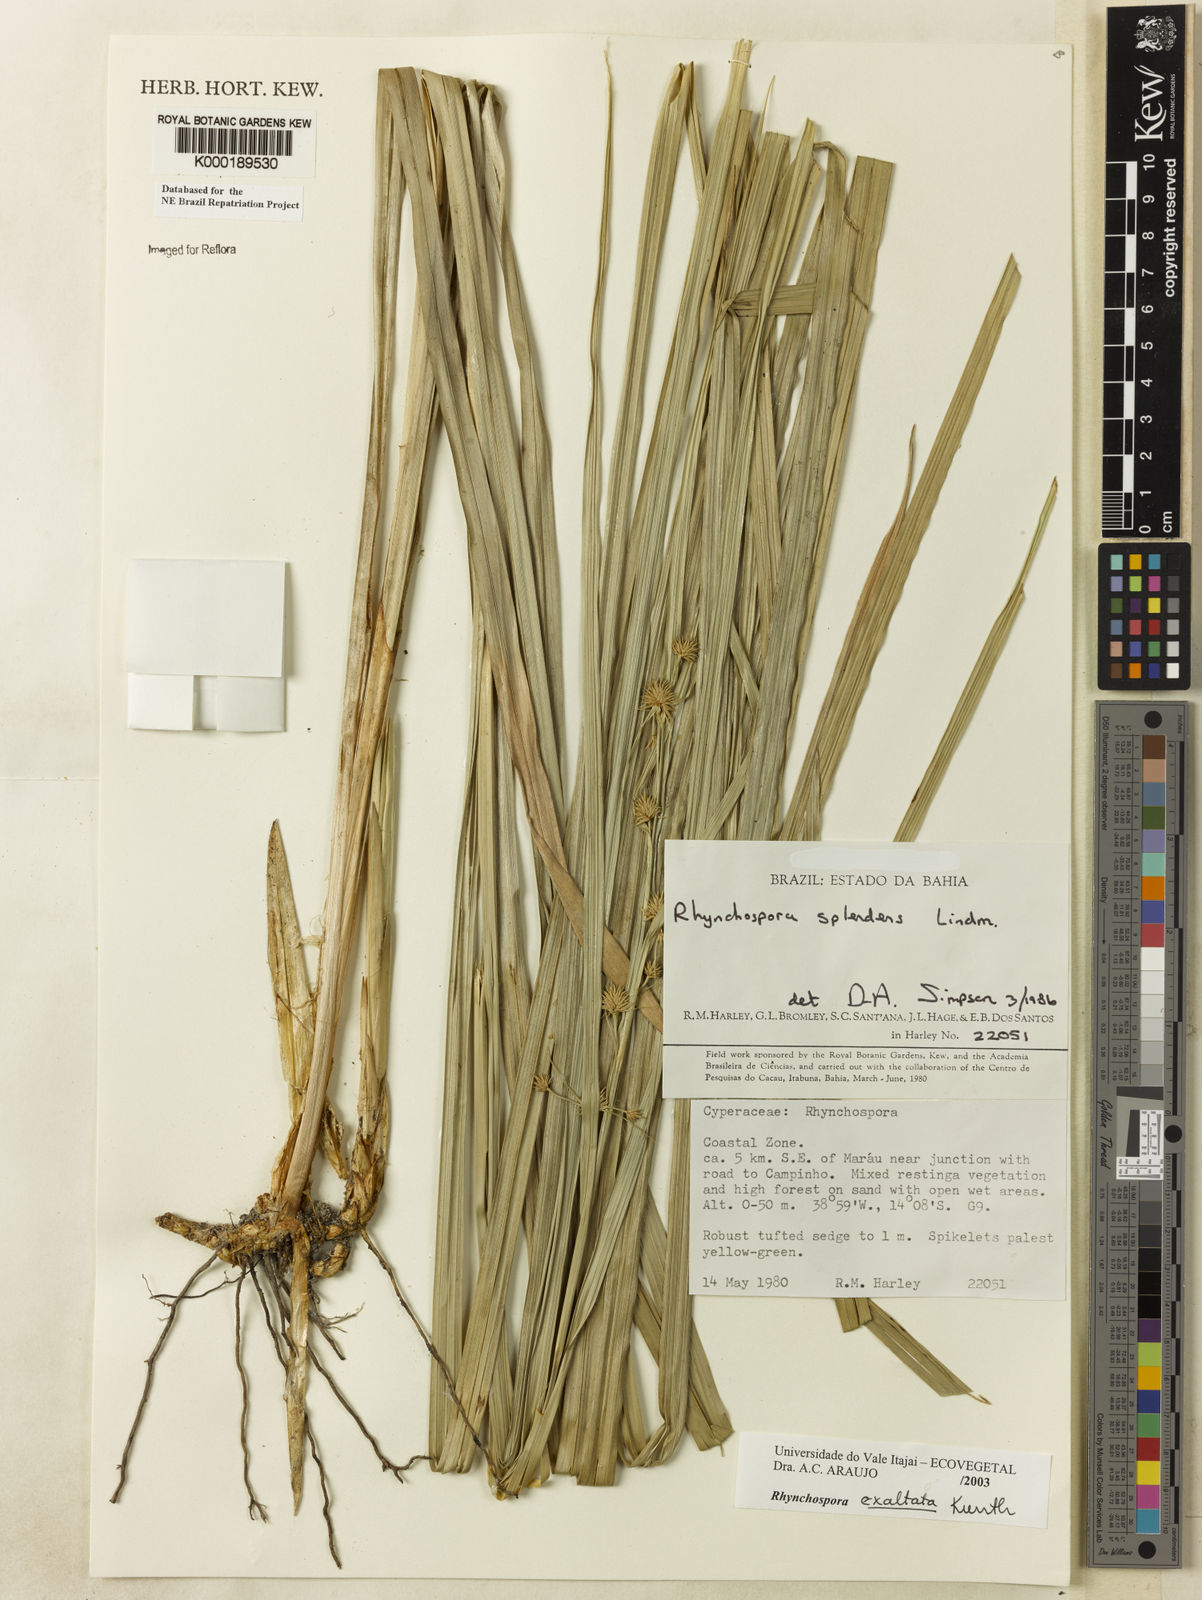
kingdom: Plantae
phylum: Tracheophyta
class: Liliopsida
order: Poales
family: Cyperaceae
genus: Rhynchospora
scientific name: Rhynchospora exaltata
